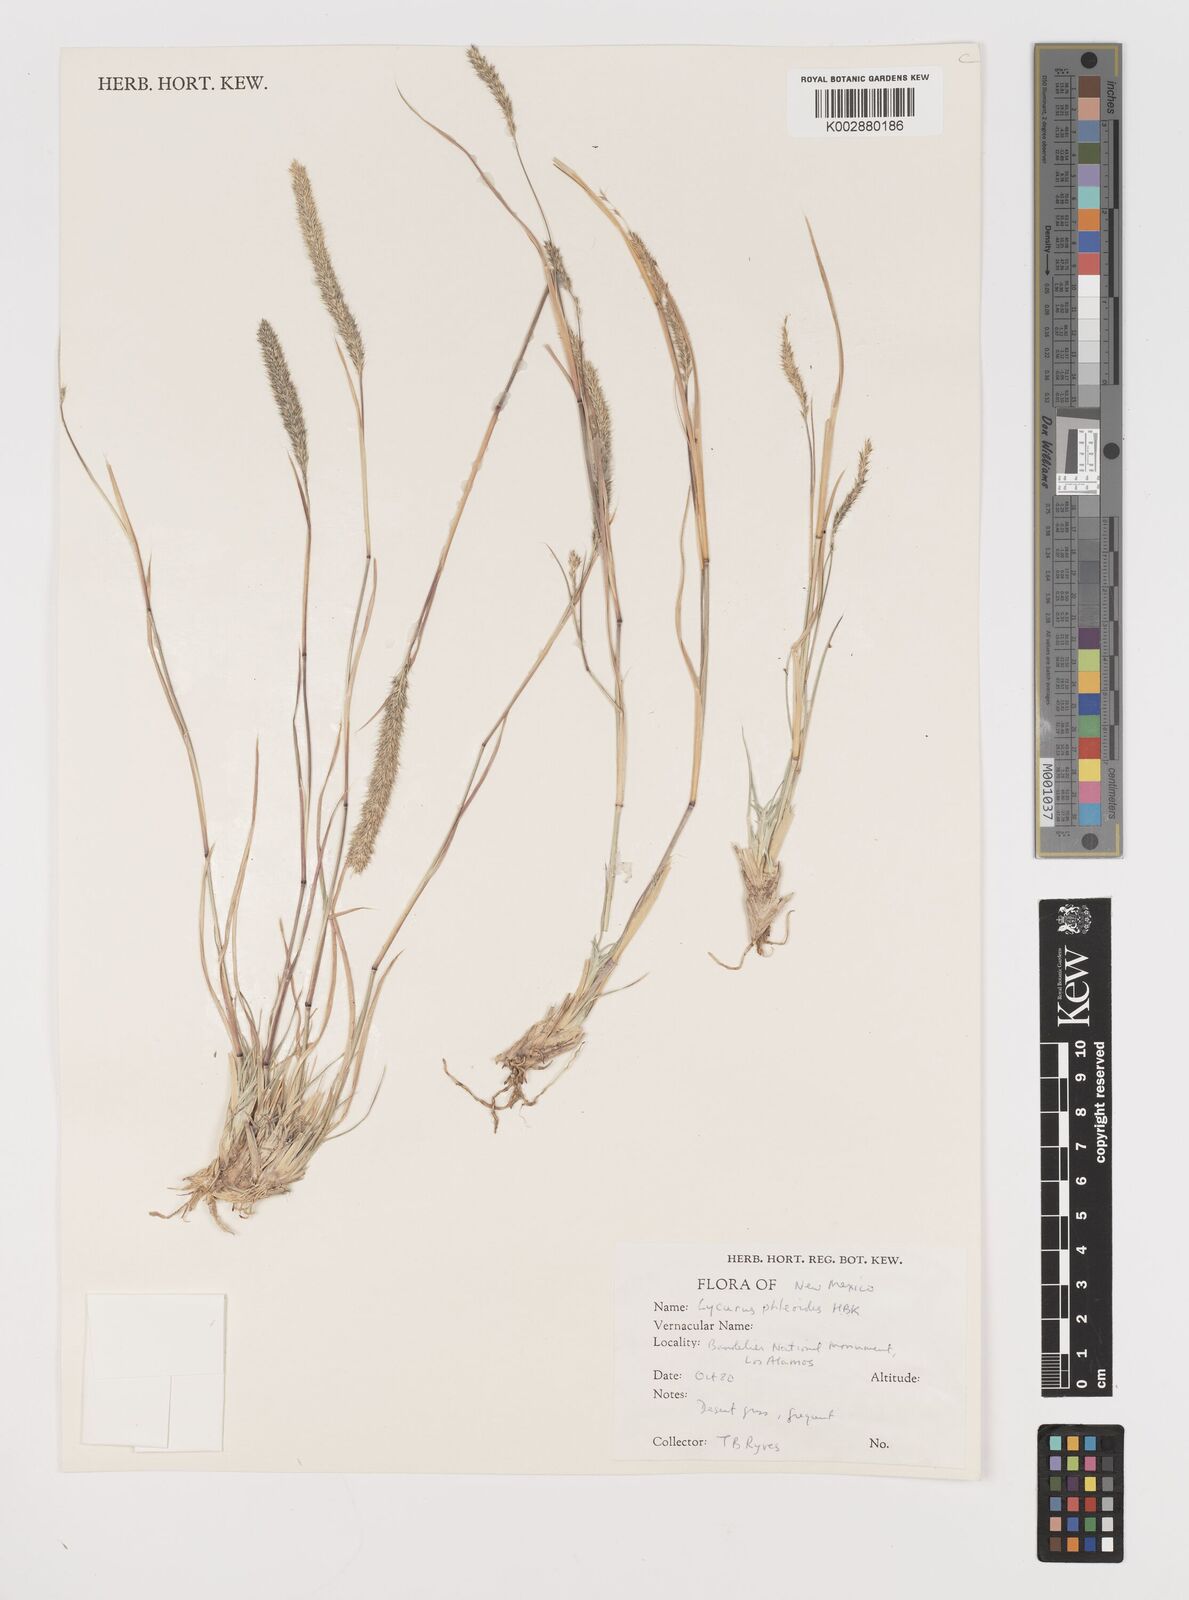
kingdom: Plantae
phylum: Tracheophyta
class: Liliopsida
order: Poales
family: Poaceae
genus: Muhlenbergia
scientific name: Muhlenbergia alopecuroides
